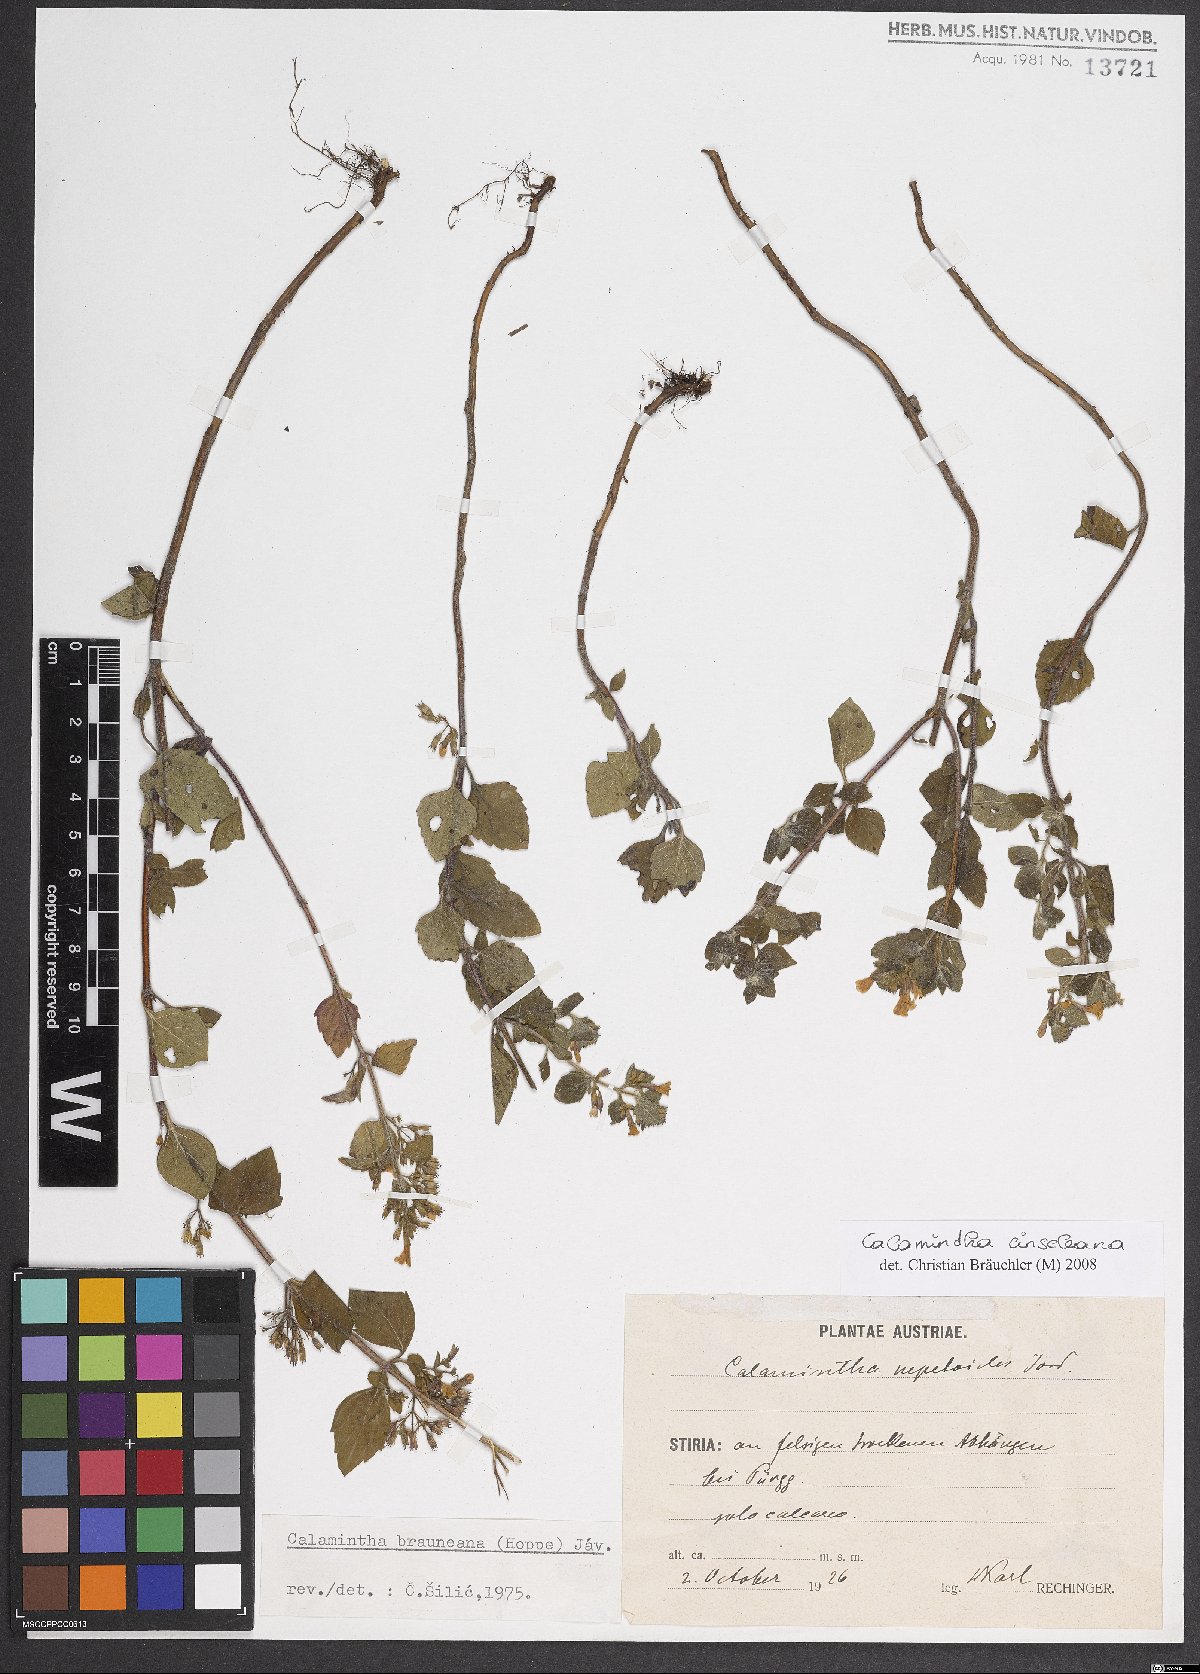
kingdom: Plantae
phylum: Tracheophyta
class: Magnoliopsida
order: Lamiales
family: Lamiaceae
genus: Clinopodium
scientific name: Clinopodium nepeta
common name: Lesser calamint
